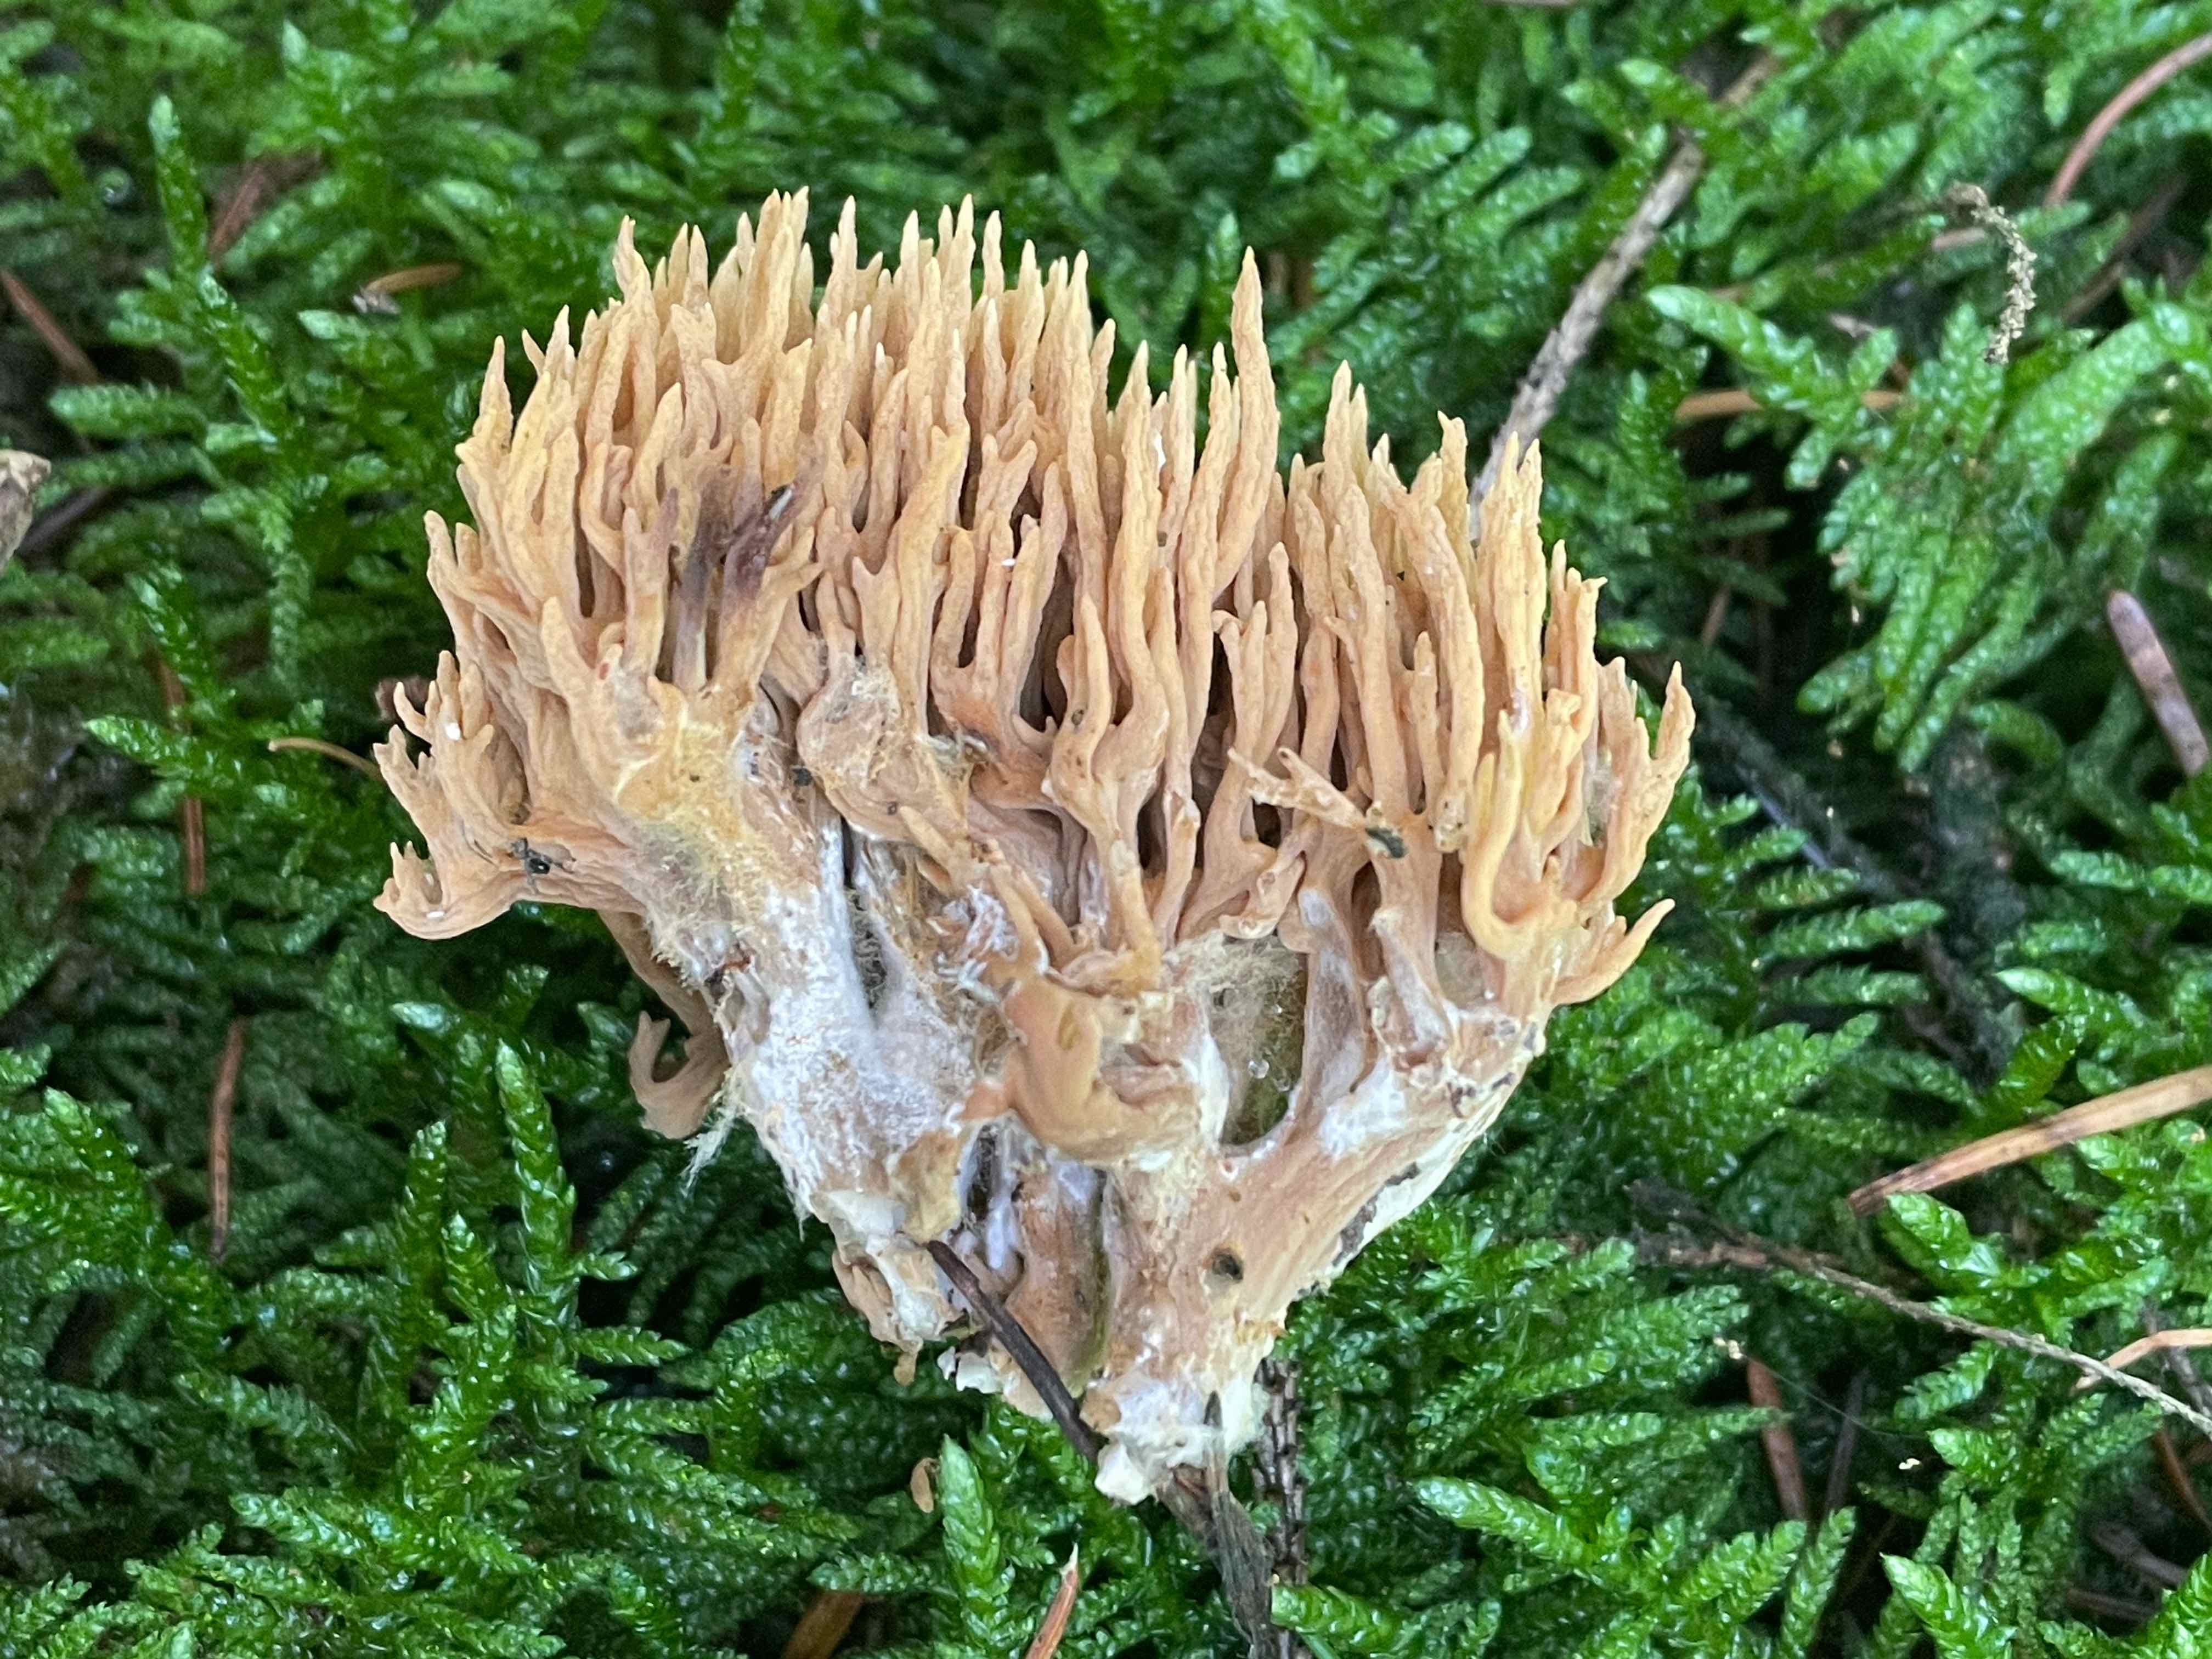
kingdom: Fungi
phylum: Basidiomycota
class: Agaricomycetes
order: Gomphales
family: Gomphaceae
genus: Phaeoclavulina
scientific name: Phaeoclavulina eumorpha
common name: gran-koralsvamp
